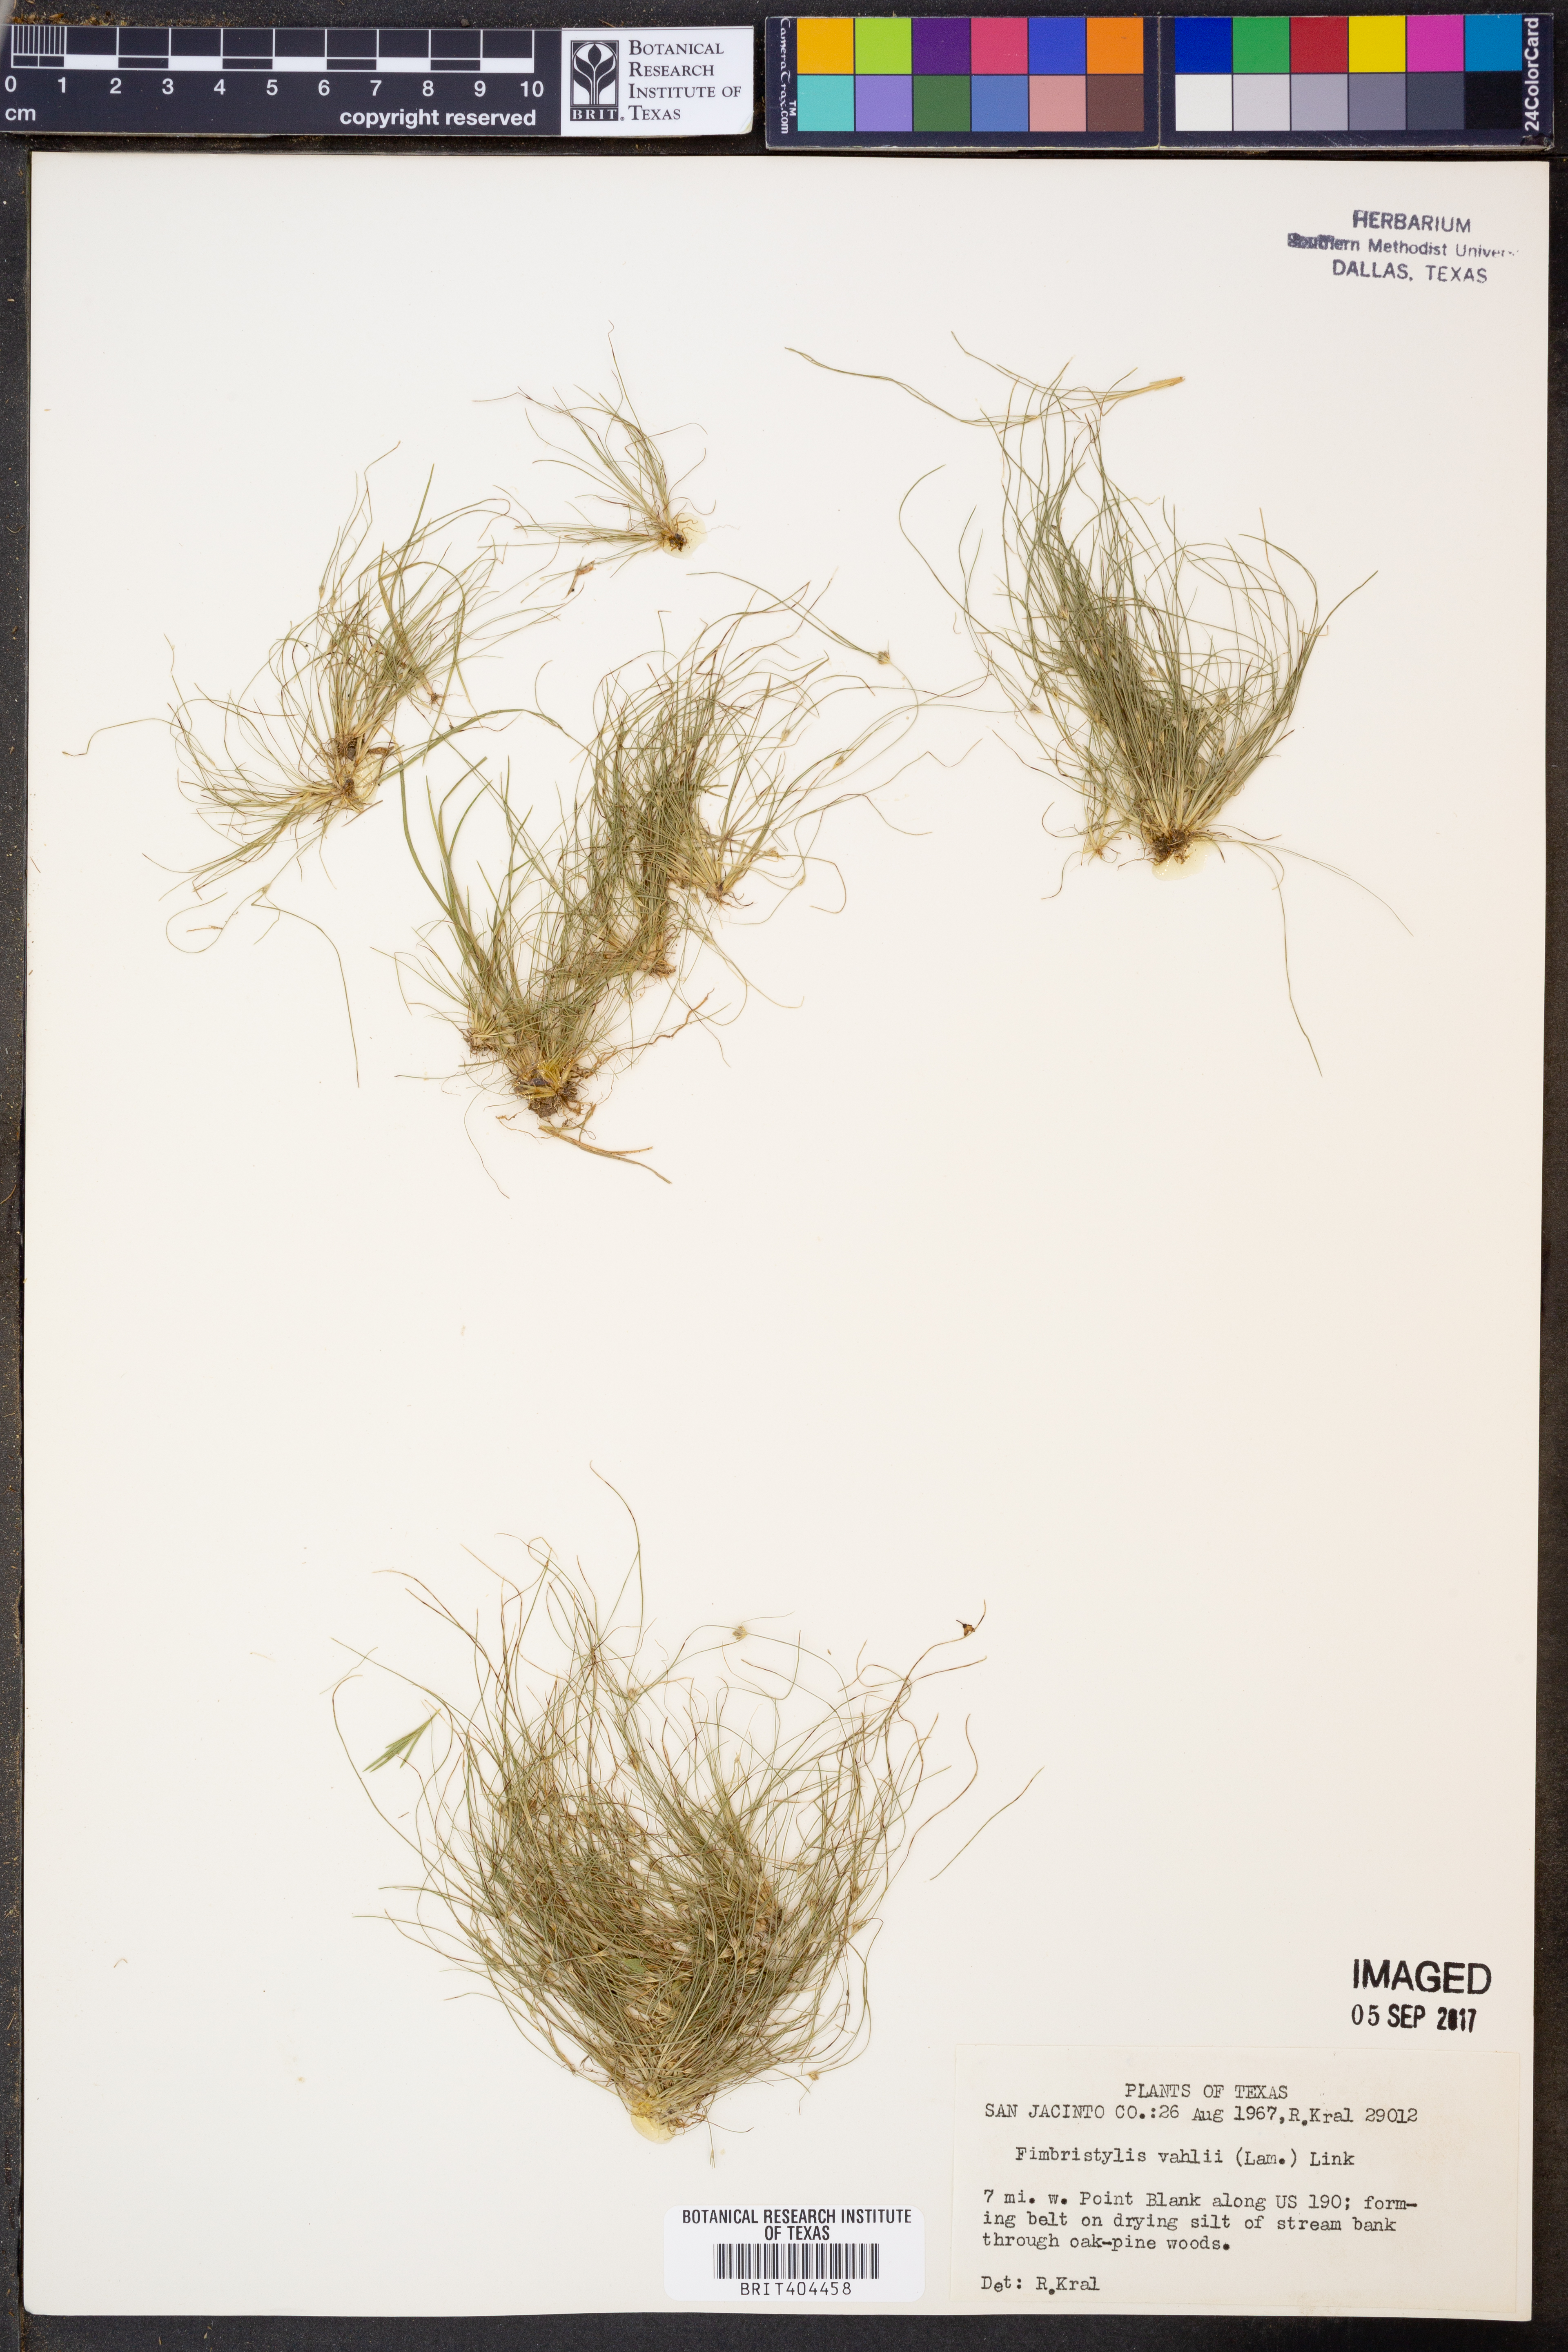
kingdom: Plantae
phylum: Tracheophyta
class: Liliopsida
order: Poales
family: Cyperaceae
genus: Fimbristylis
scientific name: Fimbristylis vahlii
